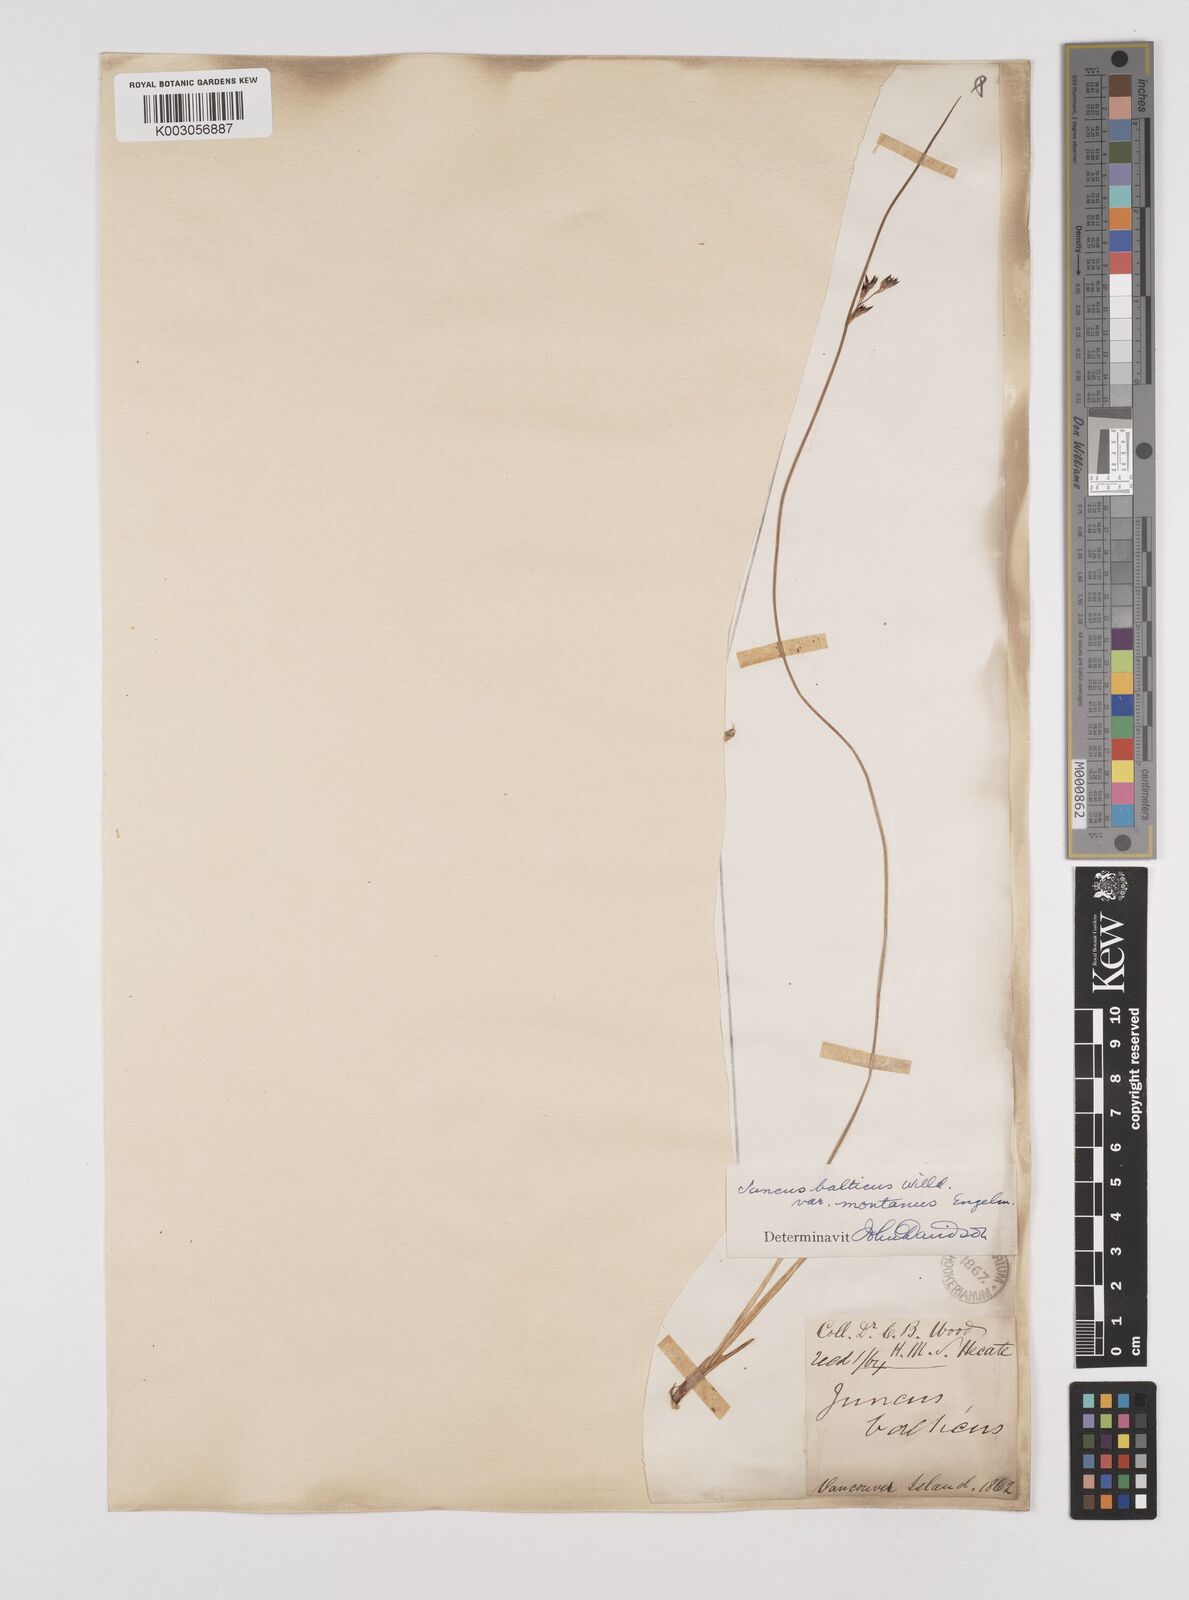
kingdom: Plantae
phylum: Tracheophyta
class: Liliopsida
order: Poales
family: Juncaceae
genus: Juncus
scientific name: Juncus
